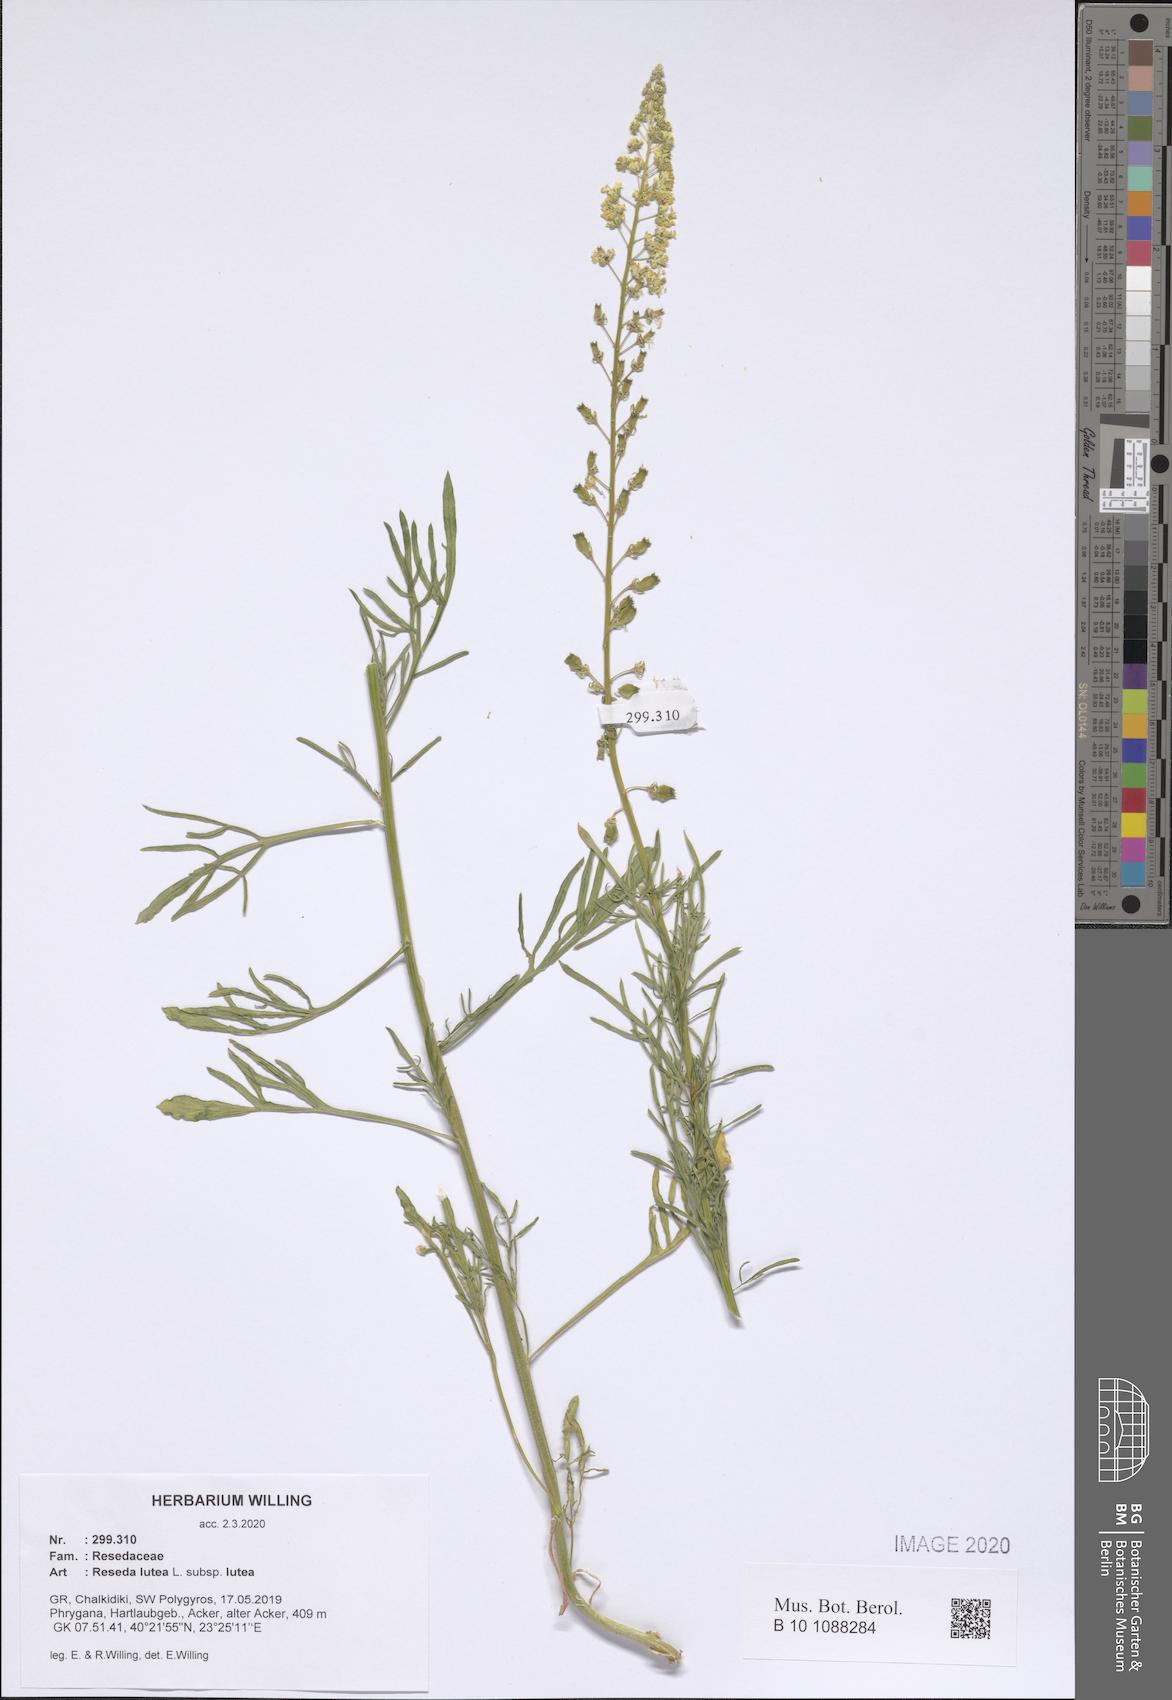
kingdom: Plantae
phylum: Tracheophyta
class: Magnoliopsida
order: Brassicales
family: Resedaceae
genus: Reseda
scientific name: Reseda lutea
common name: Wild mignonette
